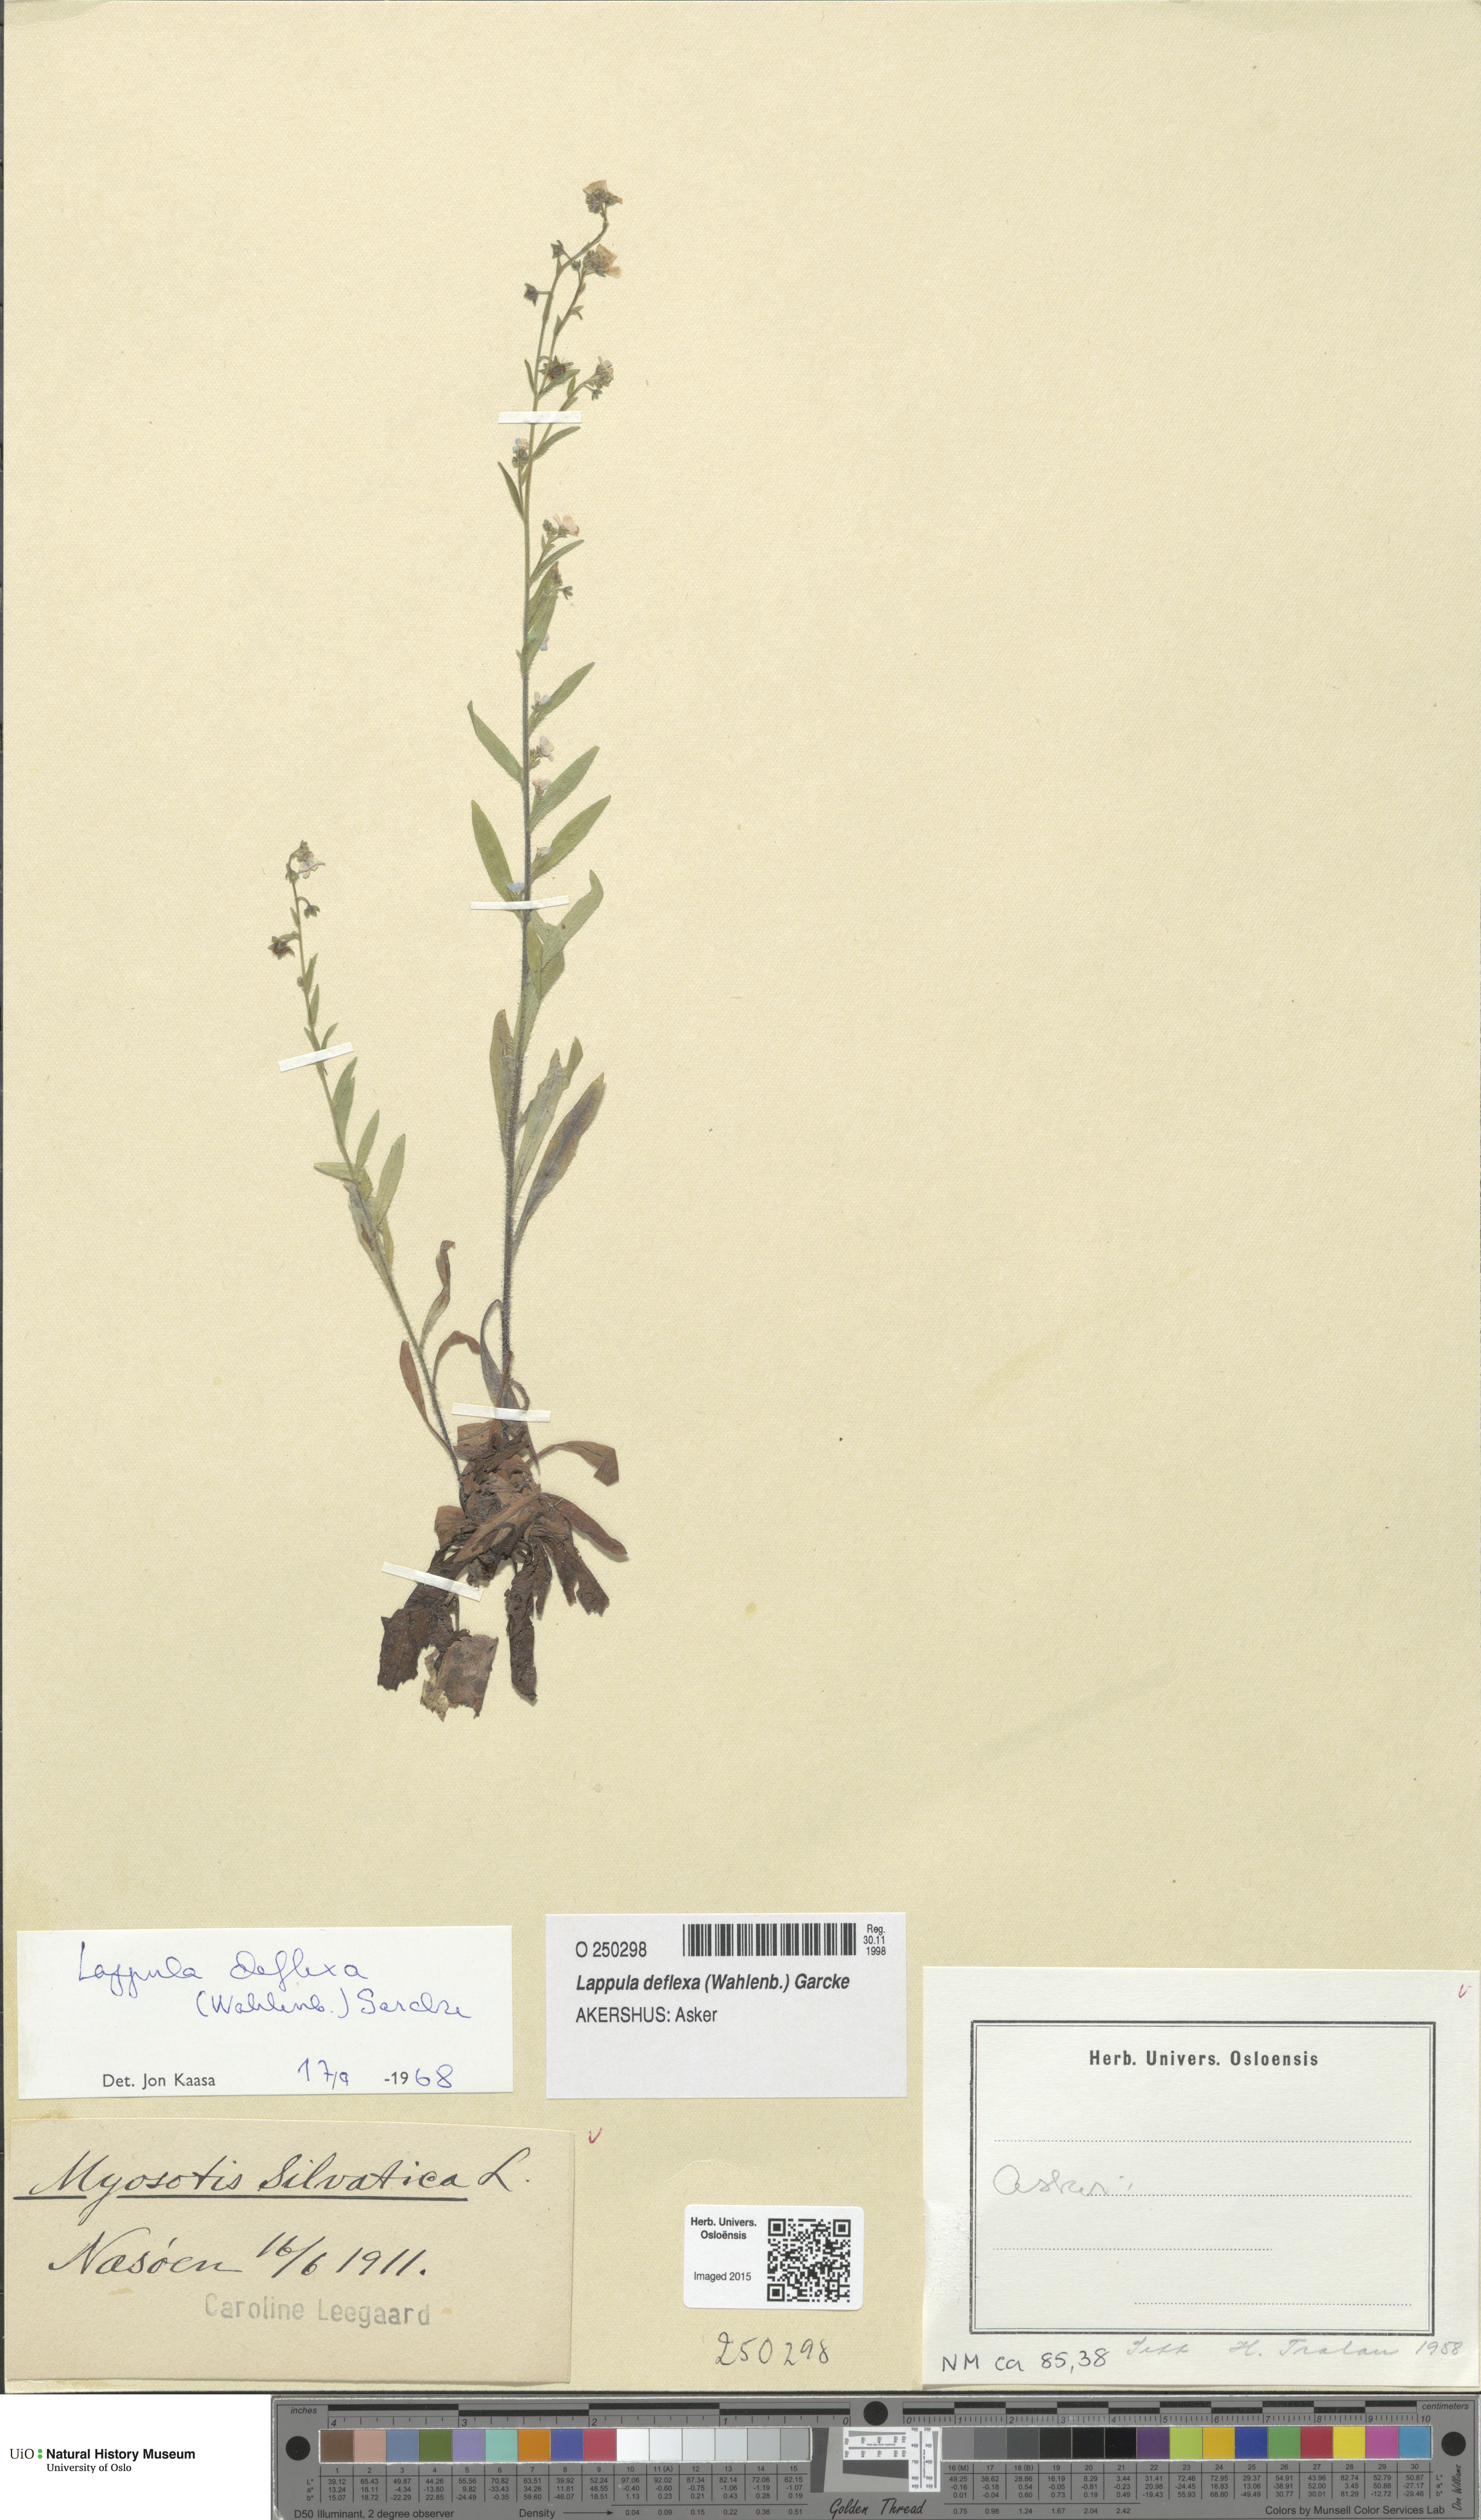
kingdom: Plantae
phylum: Tracheophyta
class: Magnoliopsida
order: Boraginales
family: Boraginaceae
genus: Hackelia
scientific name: Hackelia deflexa
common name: Nodding stickseed
